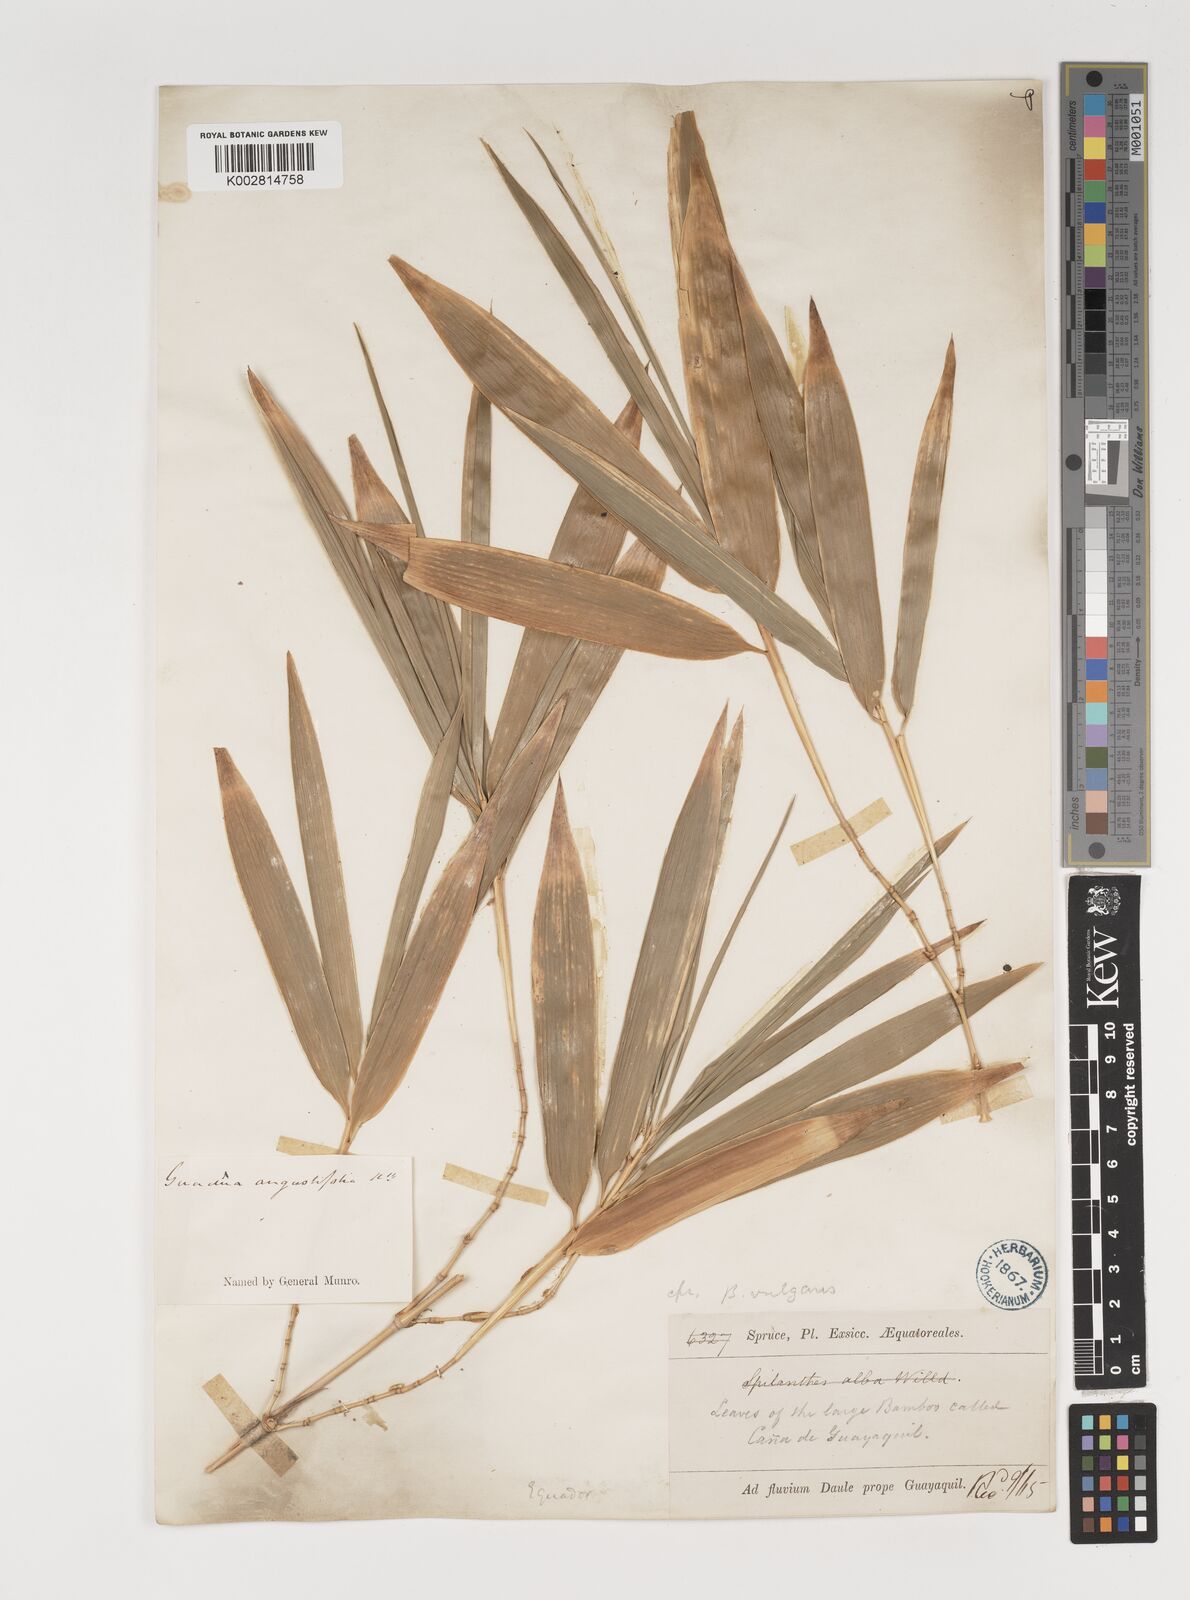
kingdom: Plantae
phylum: Tracheophyta
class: Liliopsida
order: Poales
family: Poaceae
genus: Guadua
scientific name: Guadua
